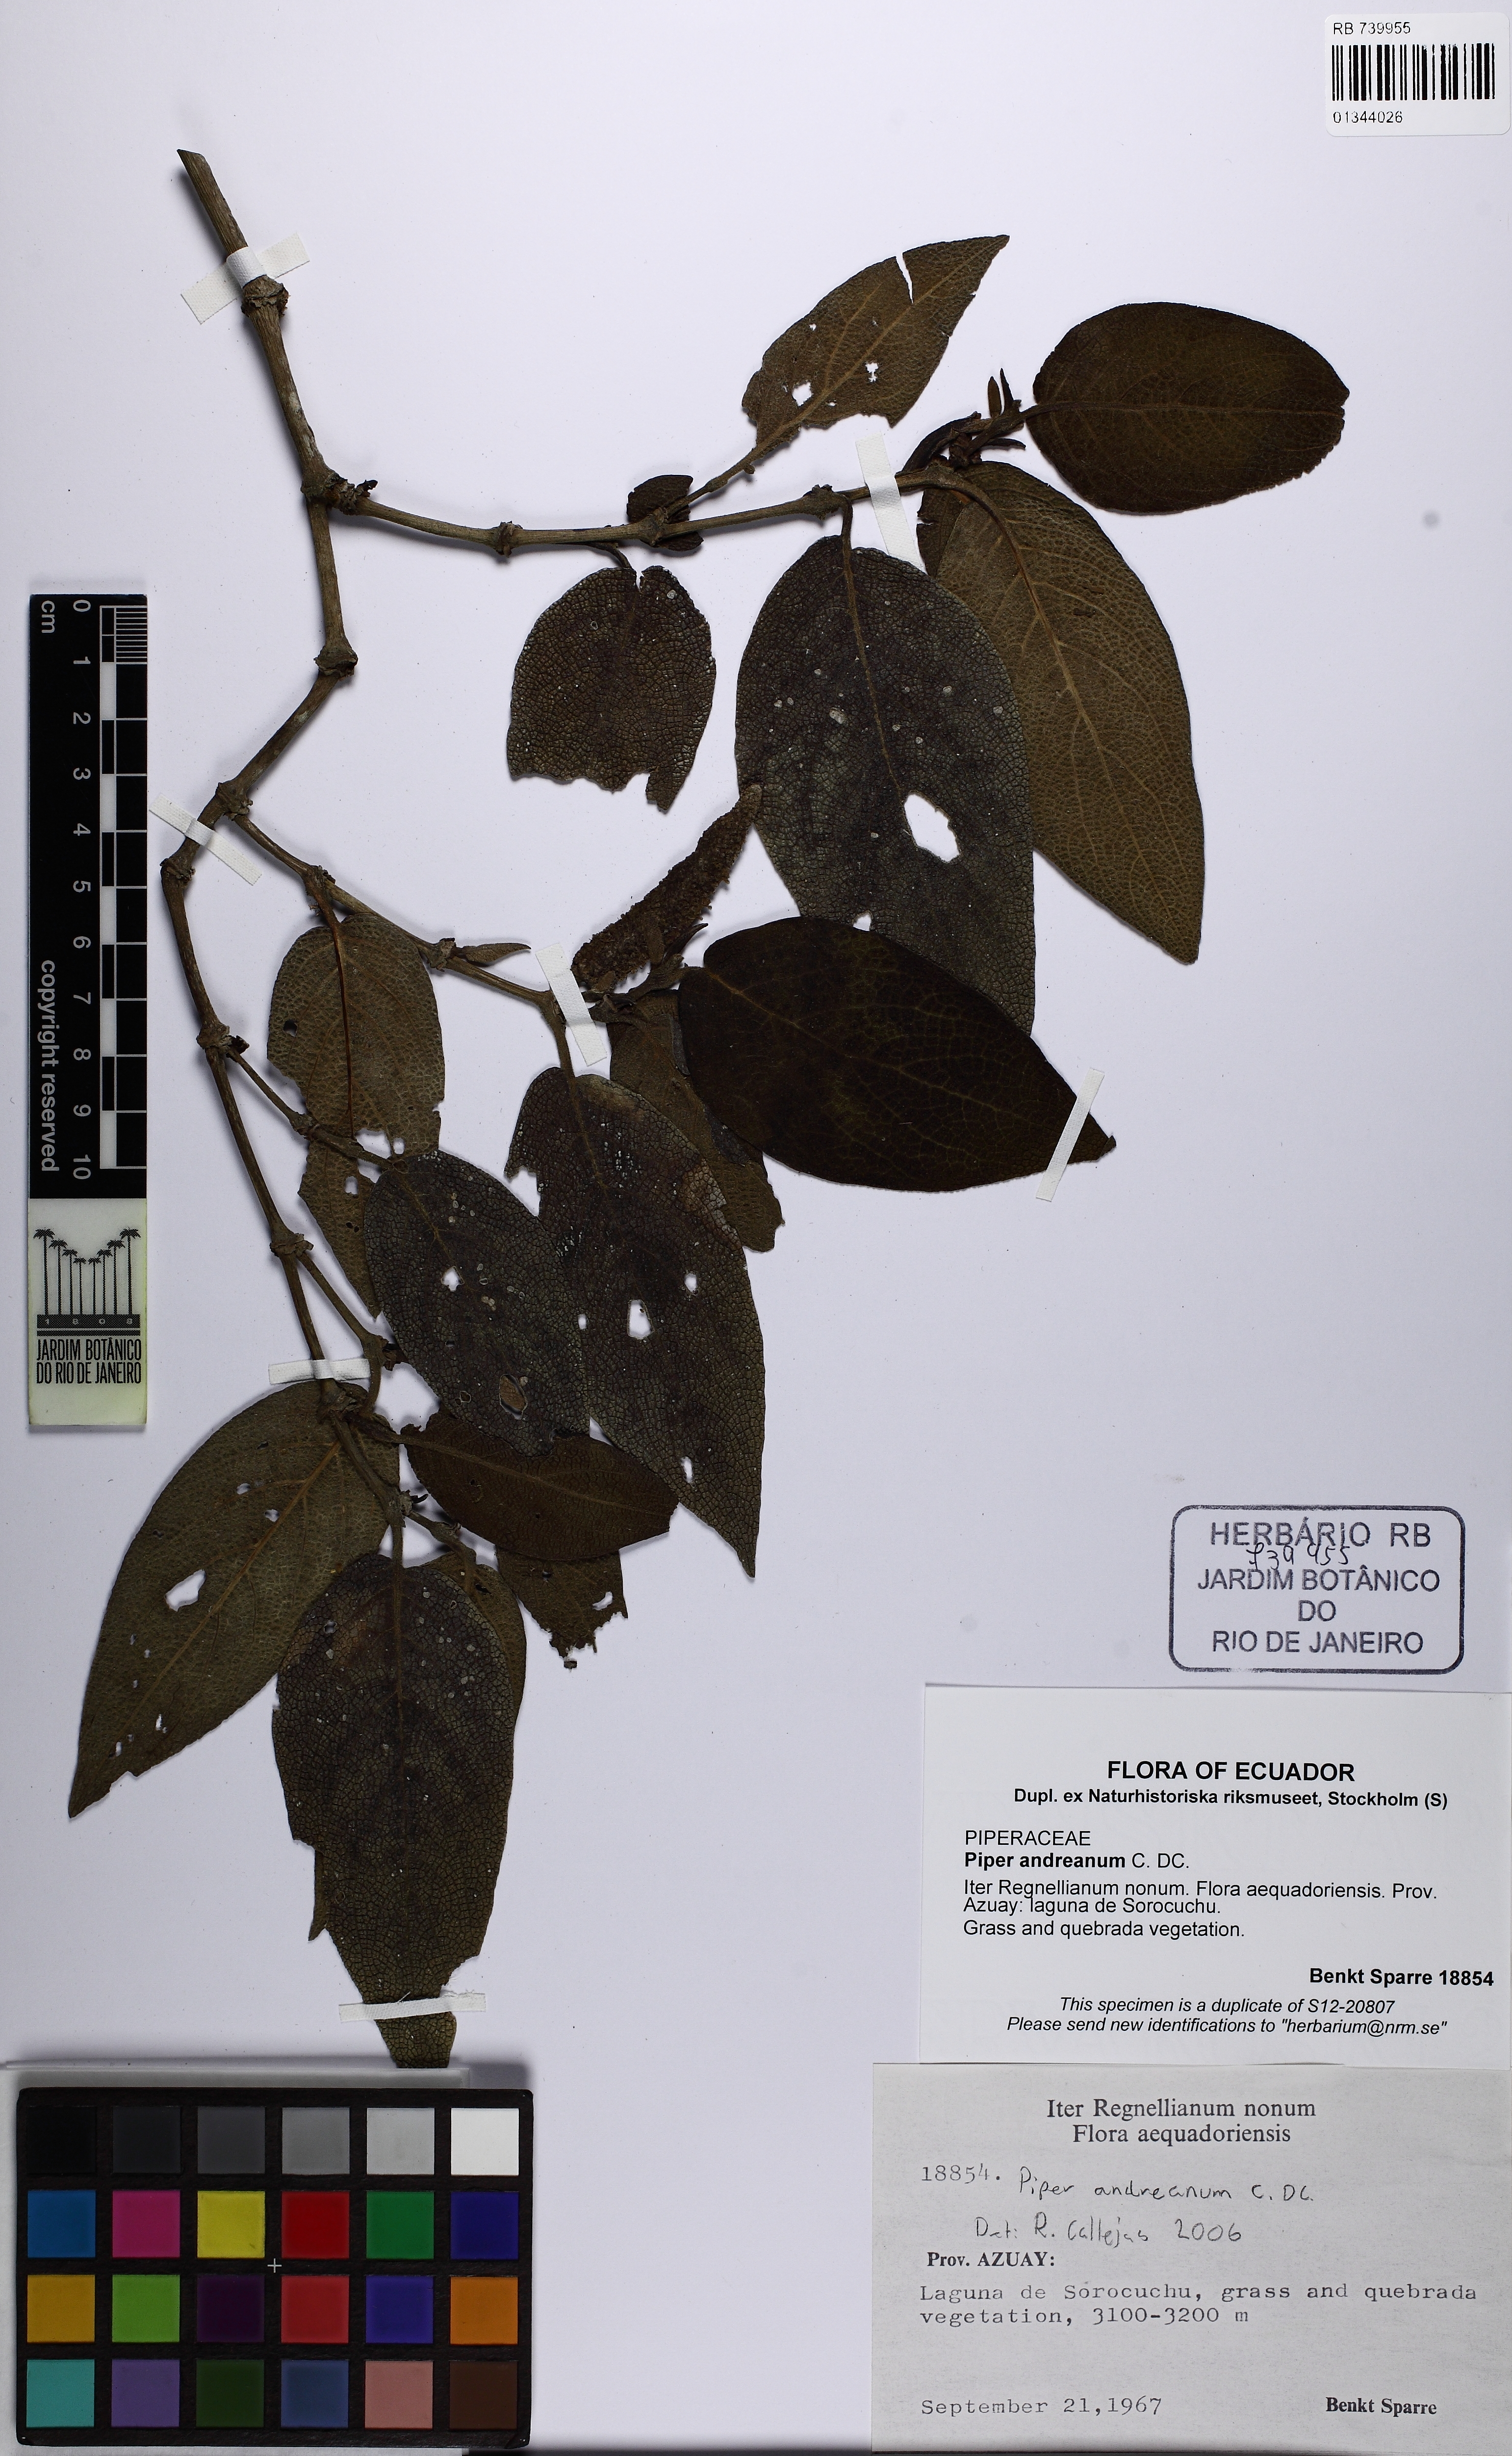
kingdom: Plantae
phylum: Tracheophyta
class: Magnoliopsida
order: Piperales
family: Piperaceae
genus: Piper
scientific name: Piper andreanum
